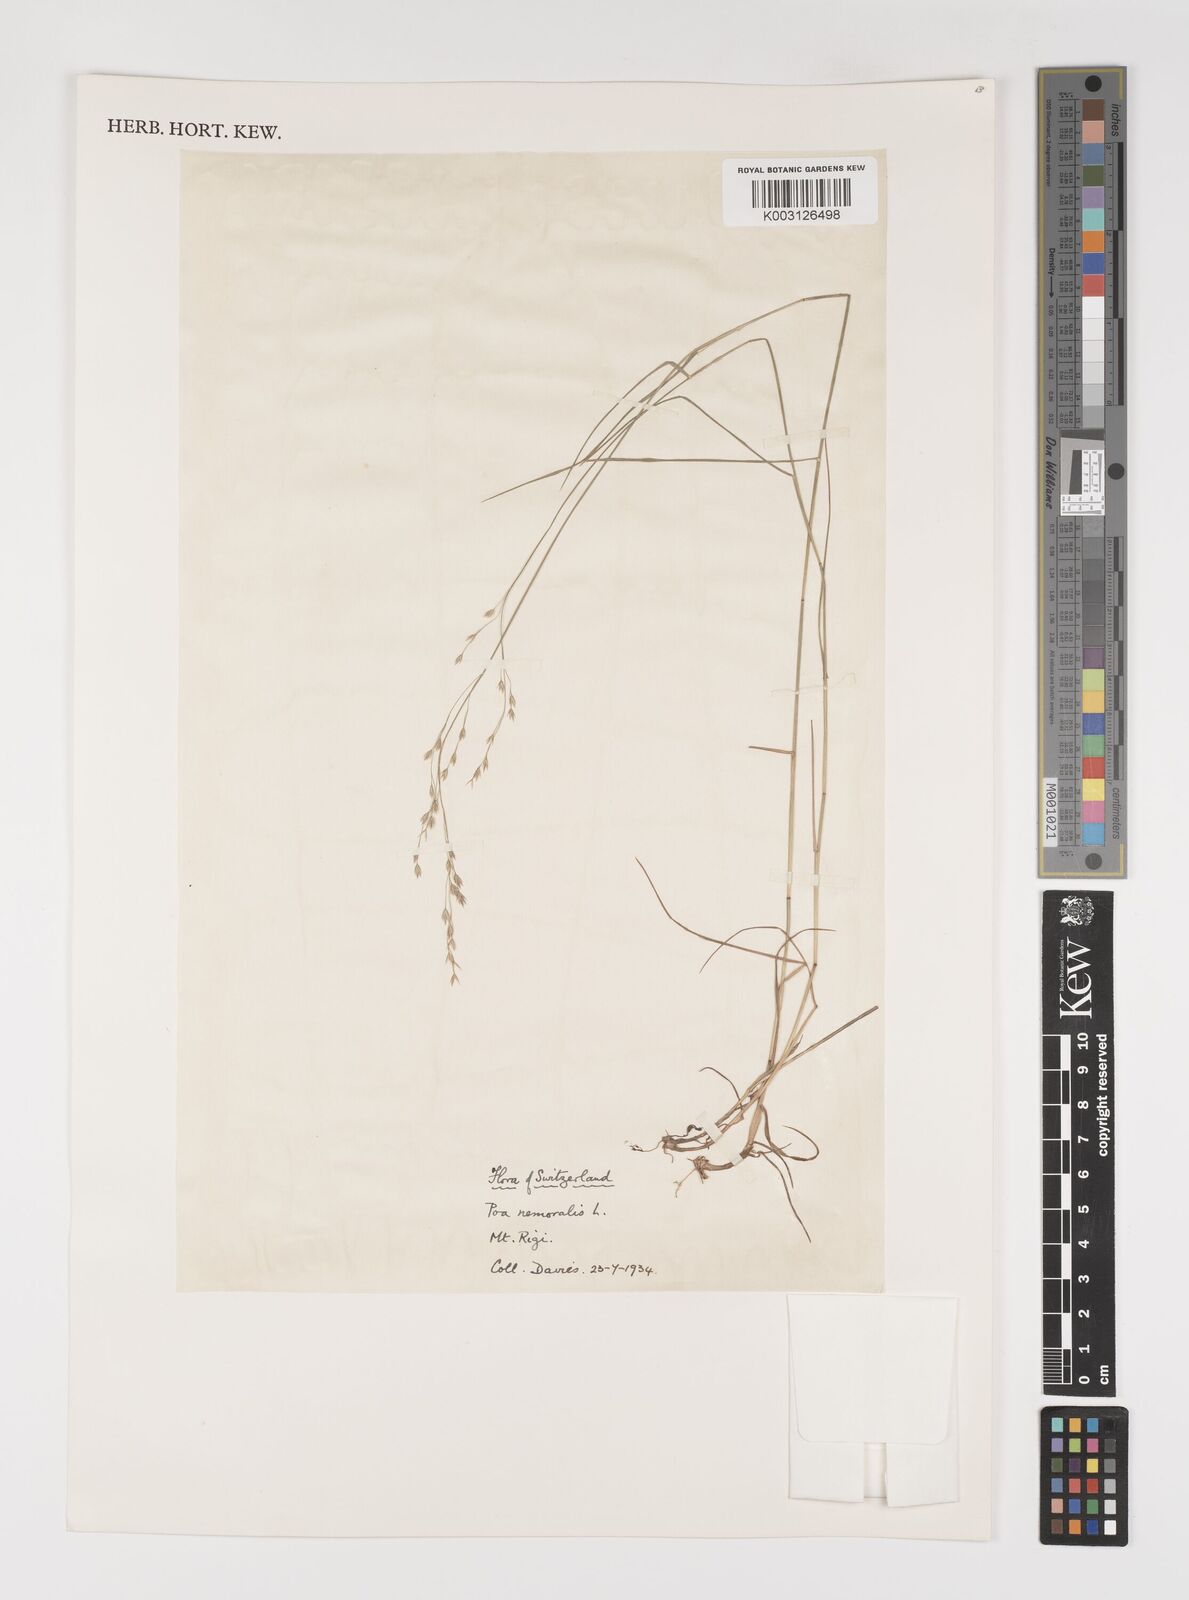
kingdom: Plantae
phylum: Tracheophyta
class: Liliopsida
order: Poales
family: Poaceae
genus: Poa
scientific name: Poa nemoralis
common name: Wood bluegrass
